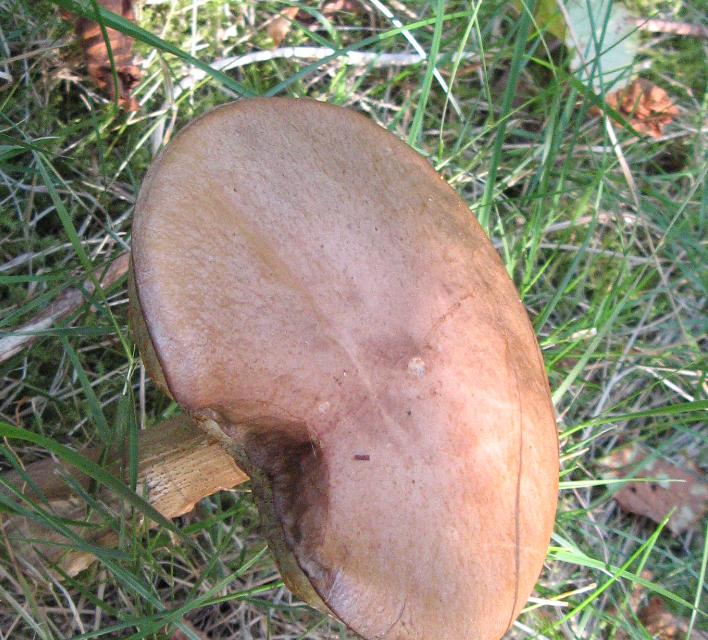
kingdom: Fungi
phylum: Basidiomycota
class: Agaricomycetes
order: Boletales
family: Boletaceae
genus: Leccinum
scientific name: Leccinum
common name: skælrørhat
